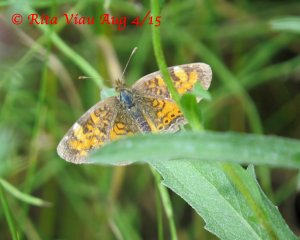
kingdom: Animalia
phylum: Arthropoda
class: Insecta
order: Lepidoptera
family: Nymphalidae
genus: Phyciodes
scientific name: Phyciodes tharos
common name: Northern Crescent
